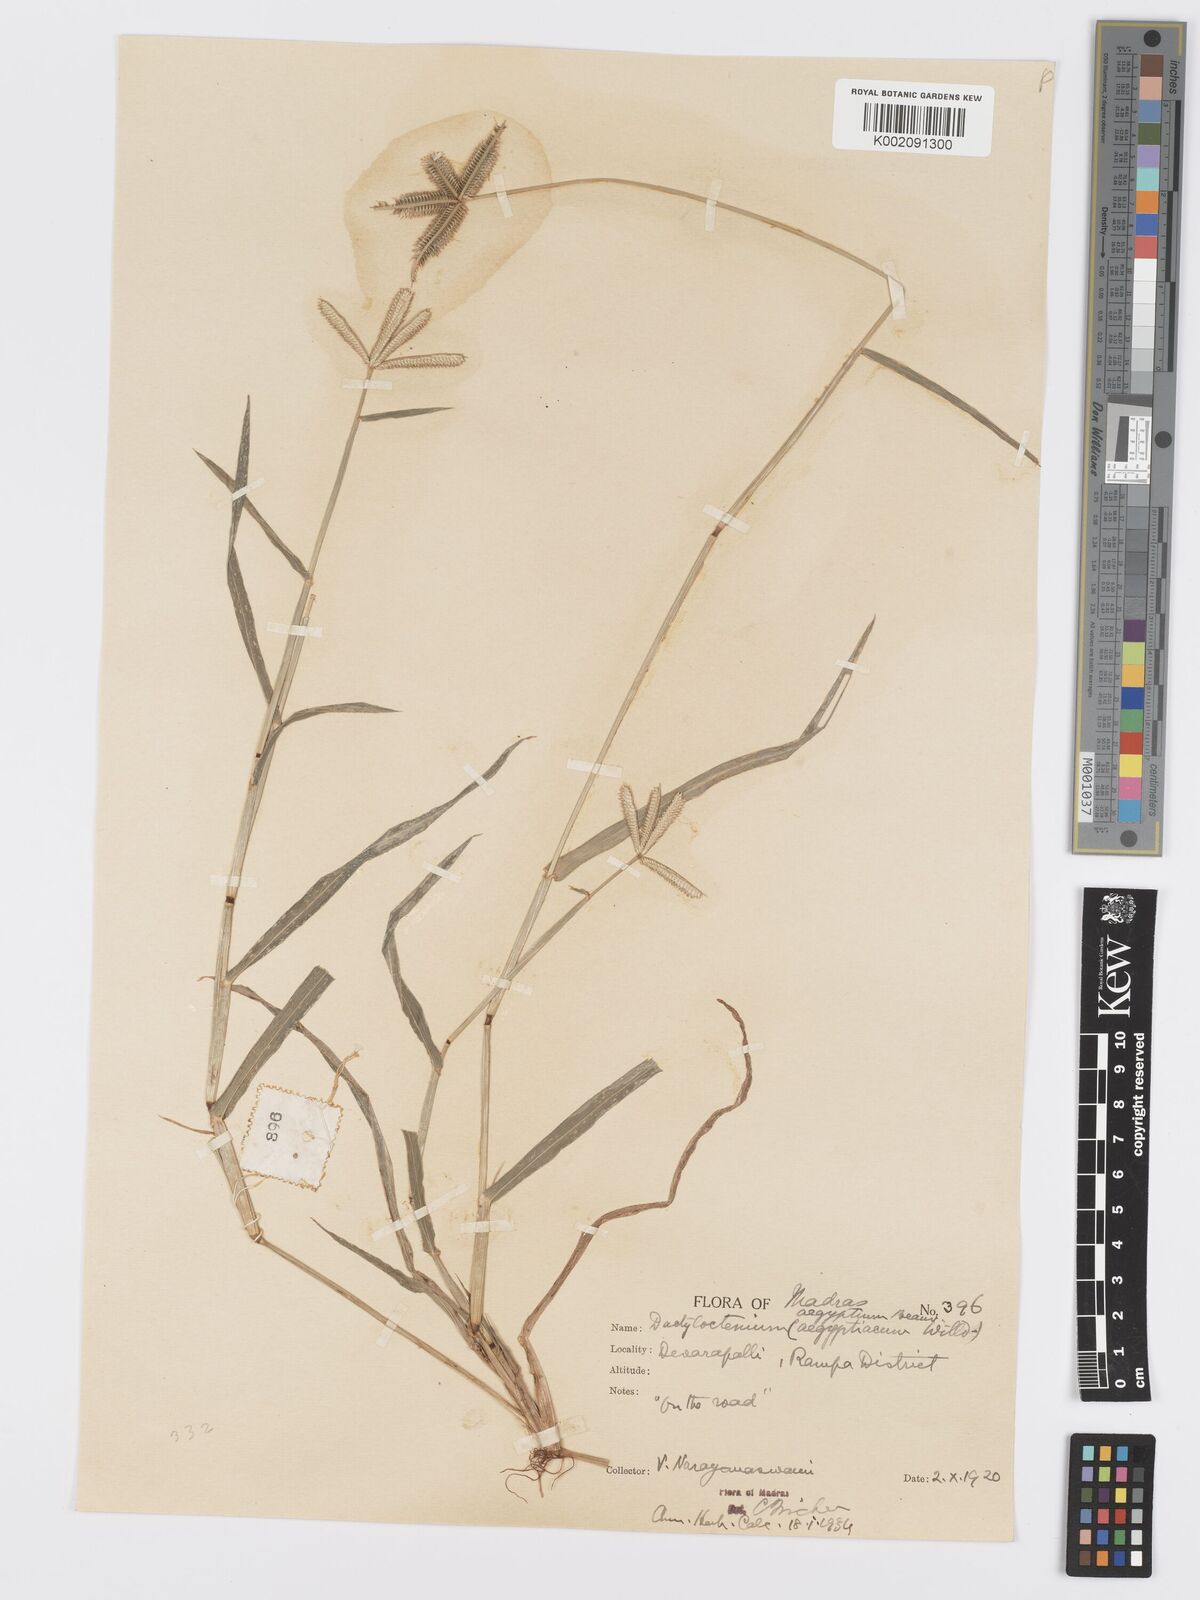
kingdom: Plantae
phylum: Tracheophyta
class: Liliopsida
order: Poales
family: Poaceae
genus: Dactyloctenium
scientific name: Dactyloctenium aegyptium
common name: Egyptian grass
